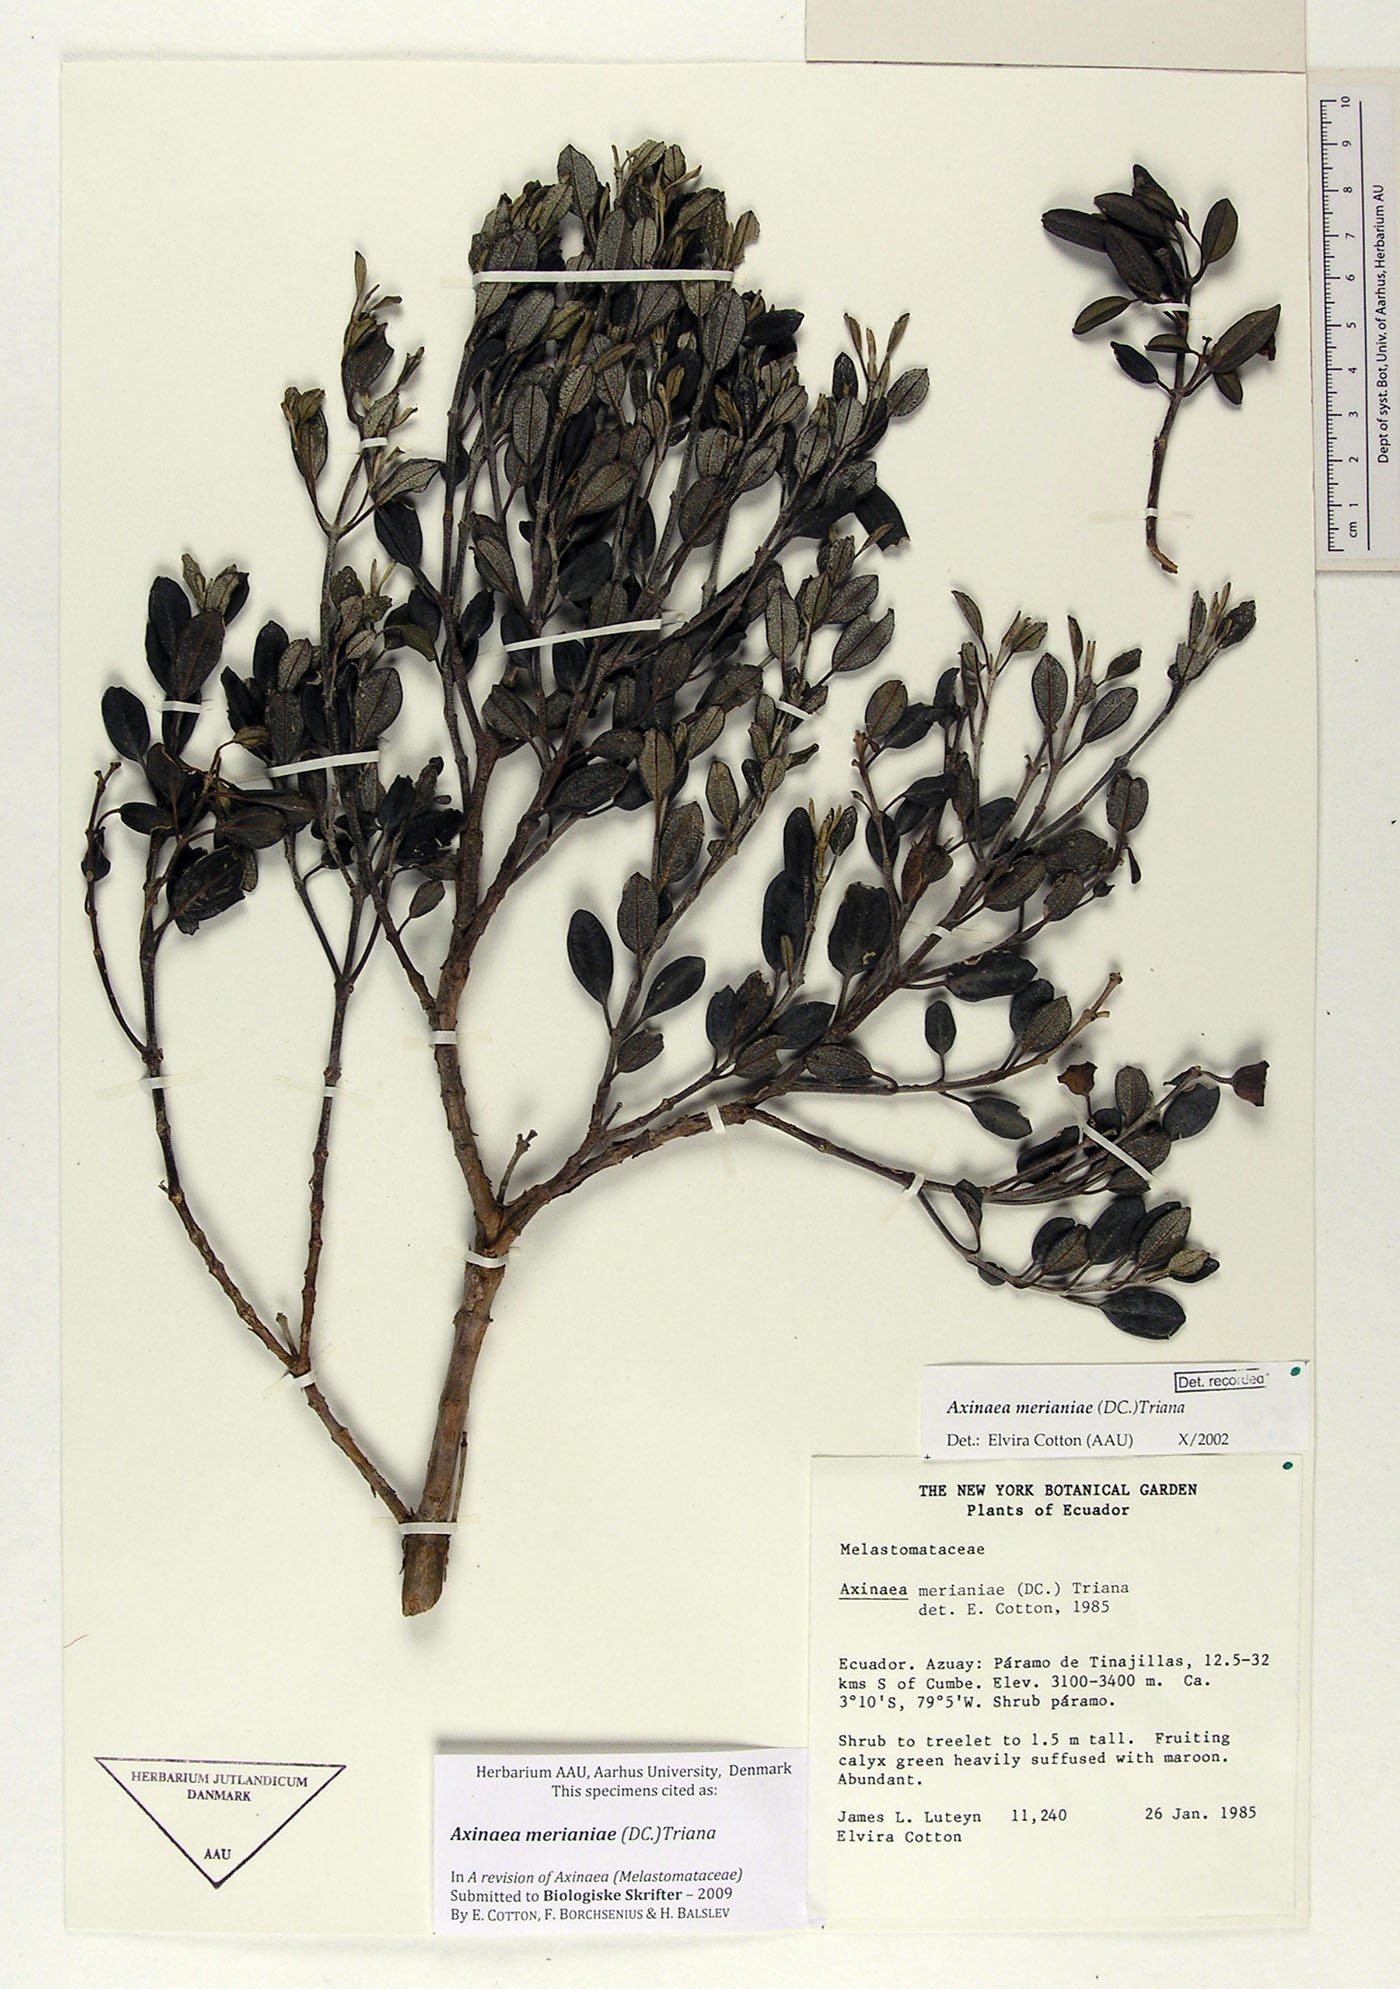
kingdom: Plantae
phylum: Tracheophyta
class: Magnoliopsida
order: Myrtales
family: Melastomataceae
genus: Axinaea
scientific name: Axinaea merianiae
